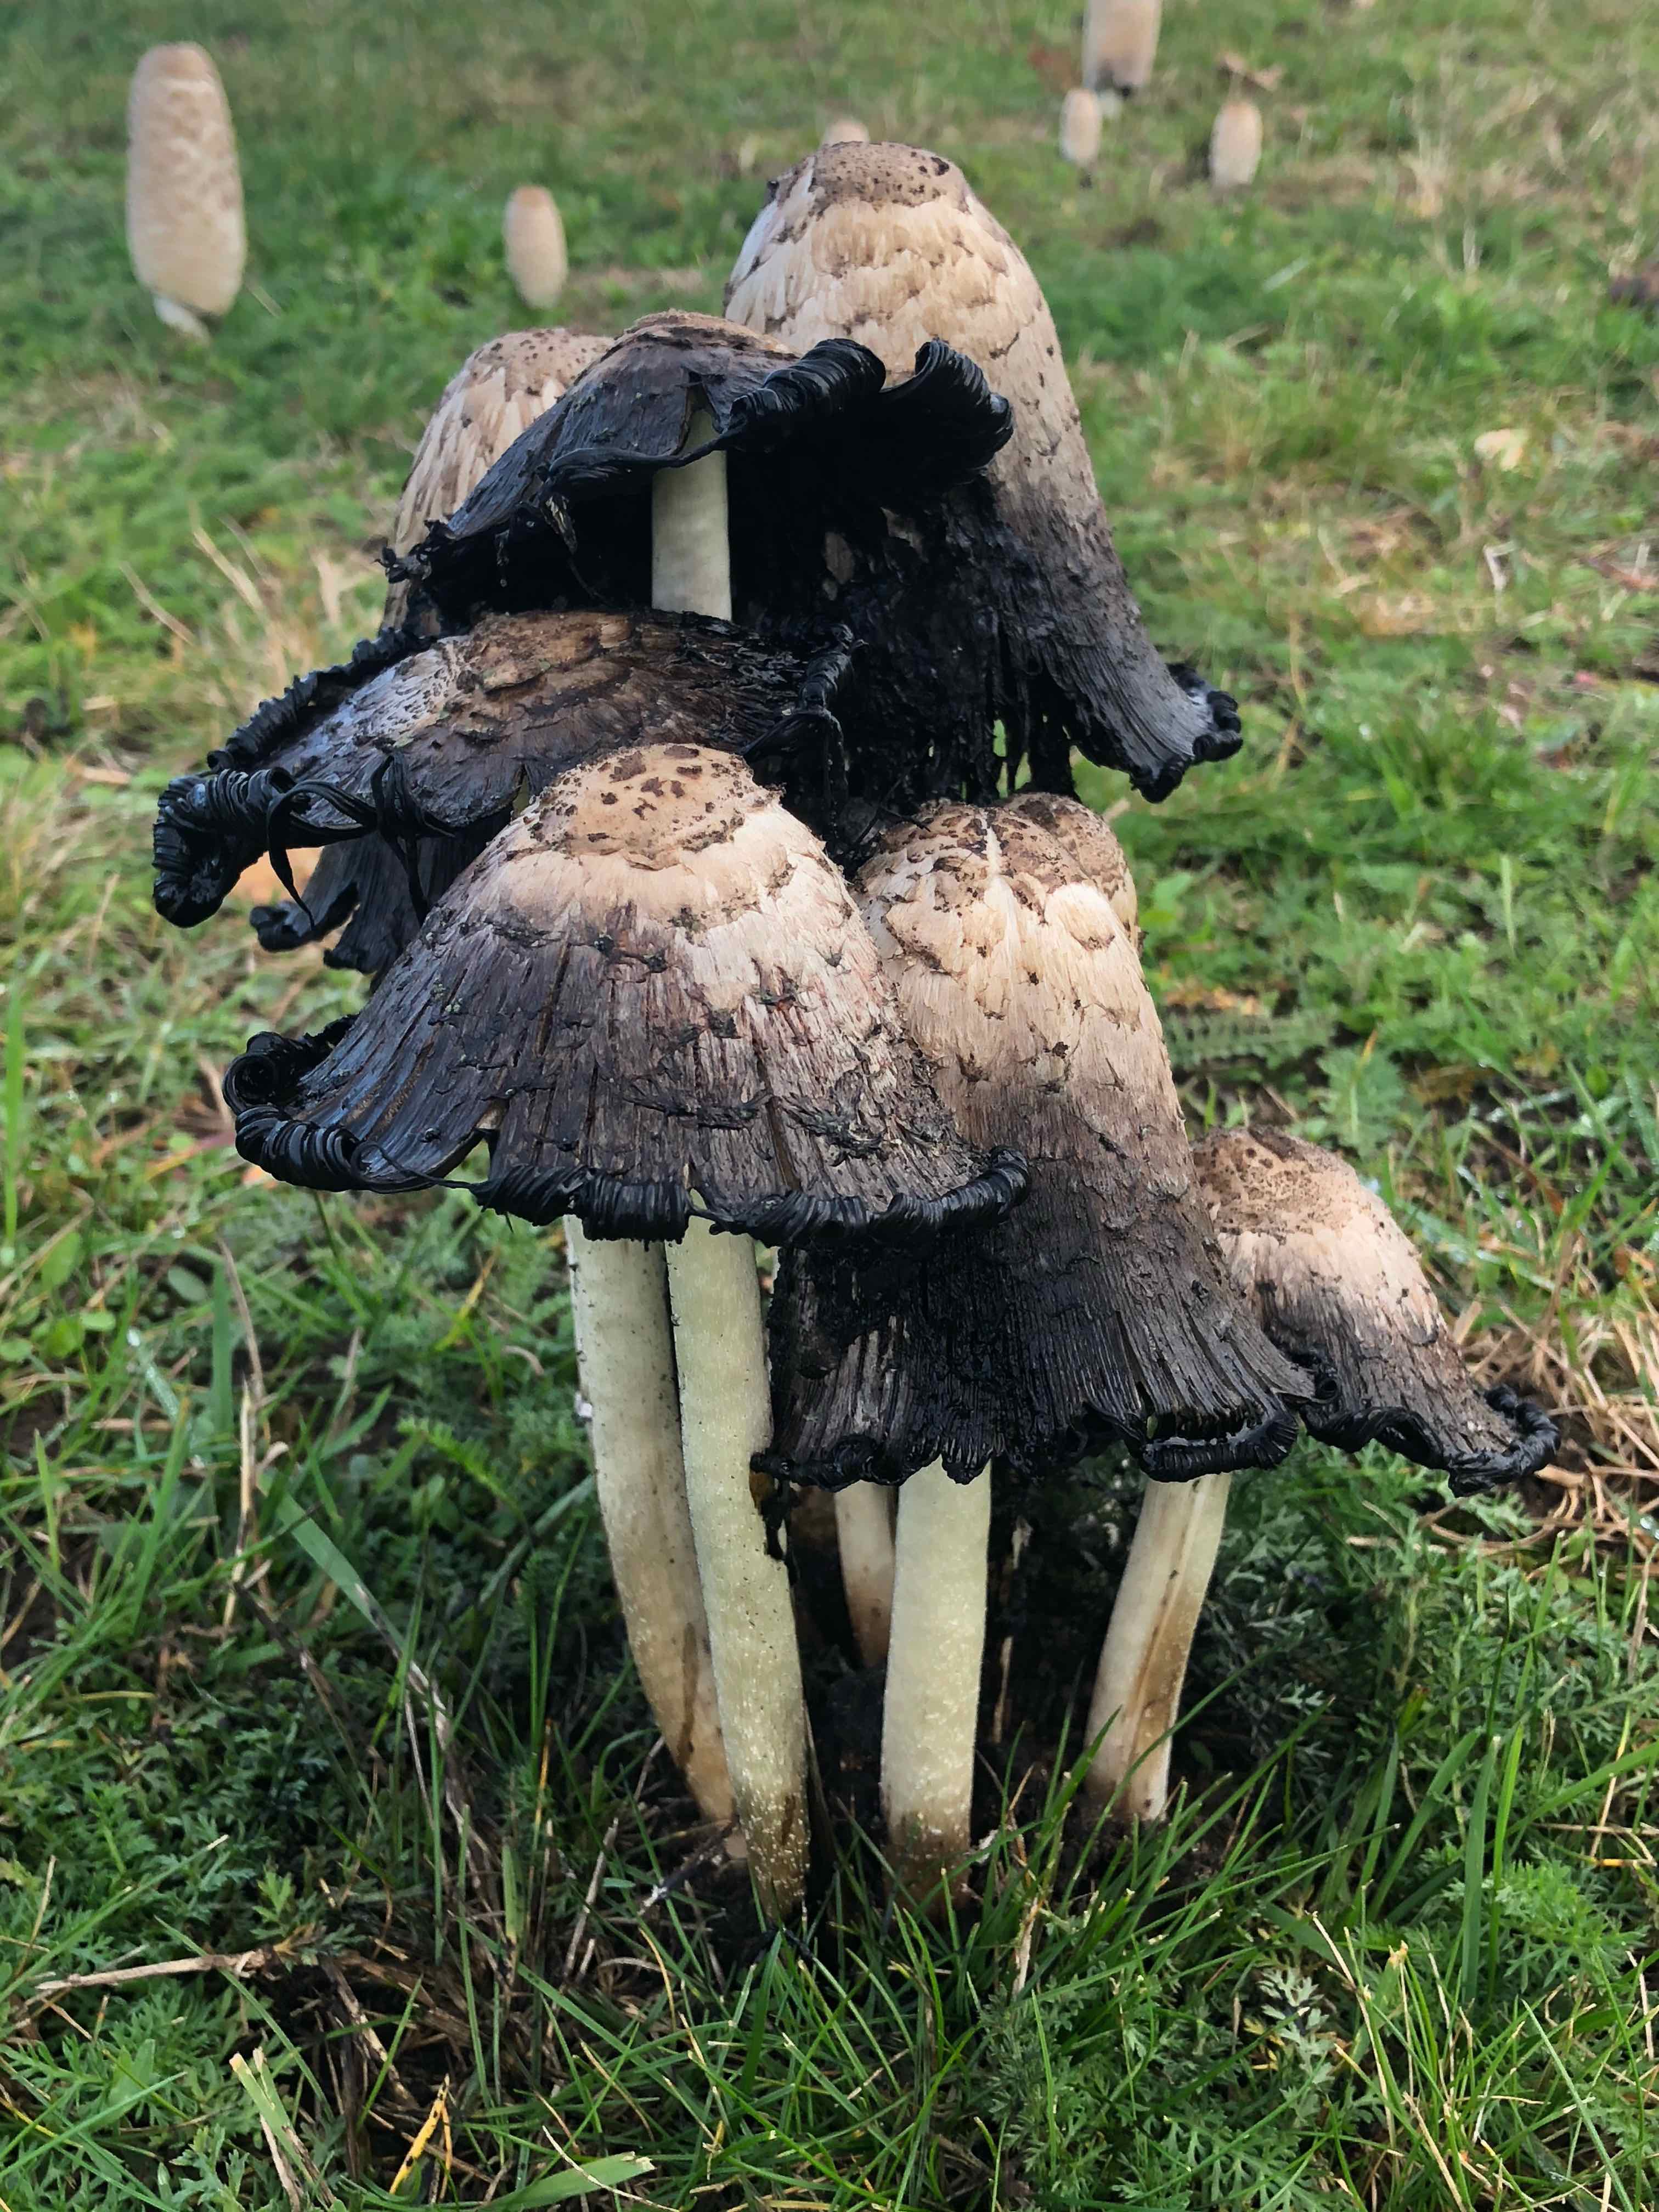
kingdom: Fungi
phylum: Basidiomycota
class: Agaricomycetes
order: Agaricales
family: Agaricaceae
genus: Coprinus
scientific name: Coprinus comatus
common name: stor parykhat
